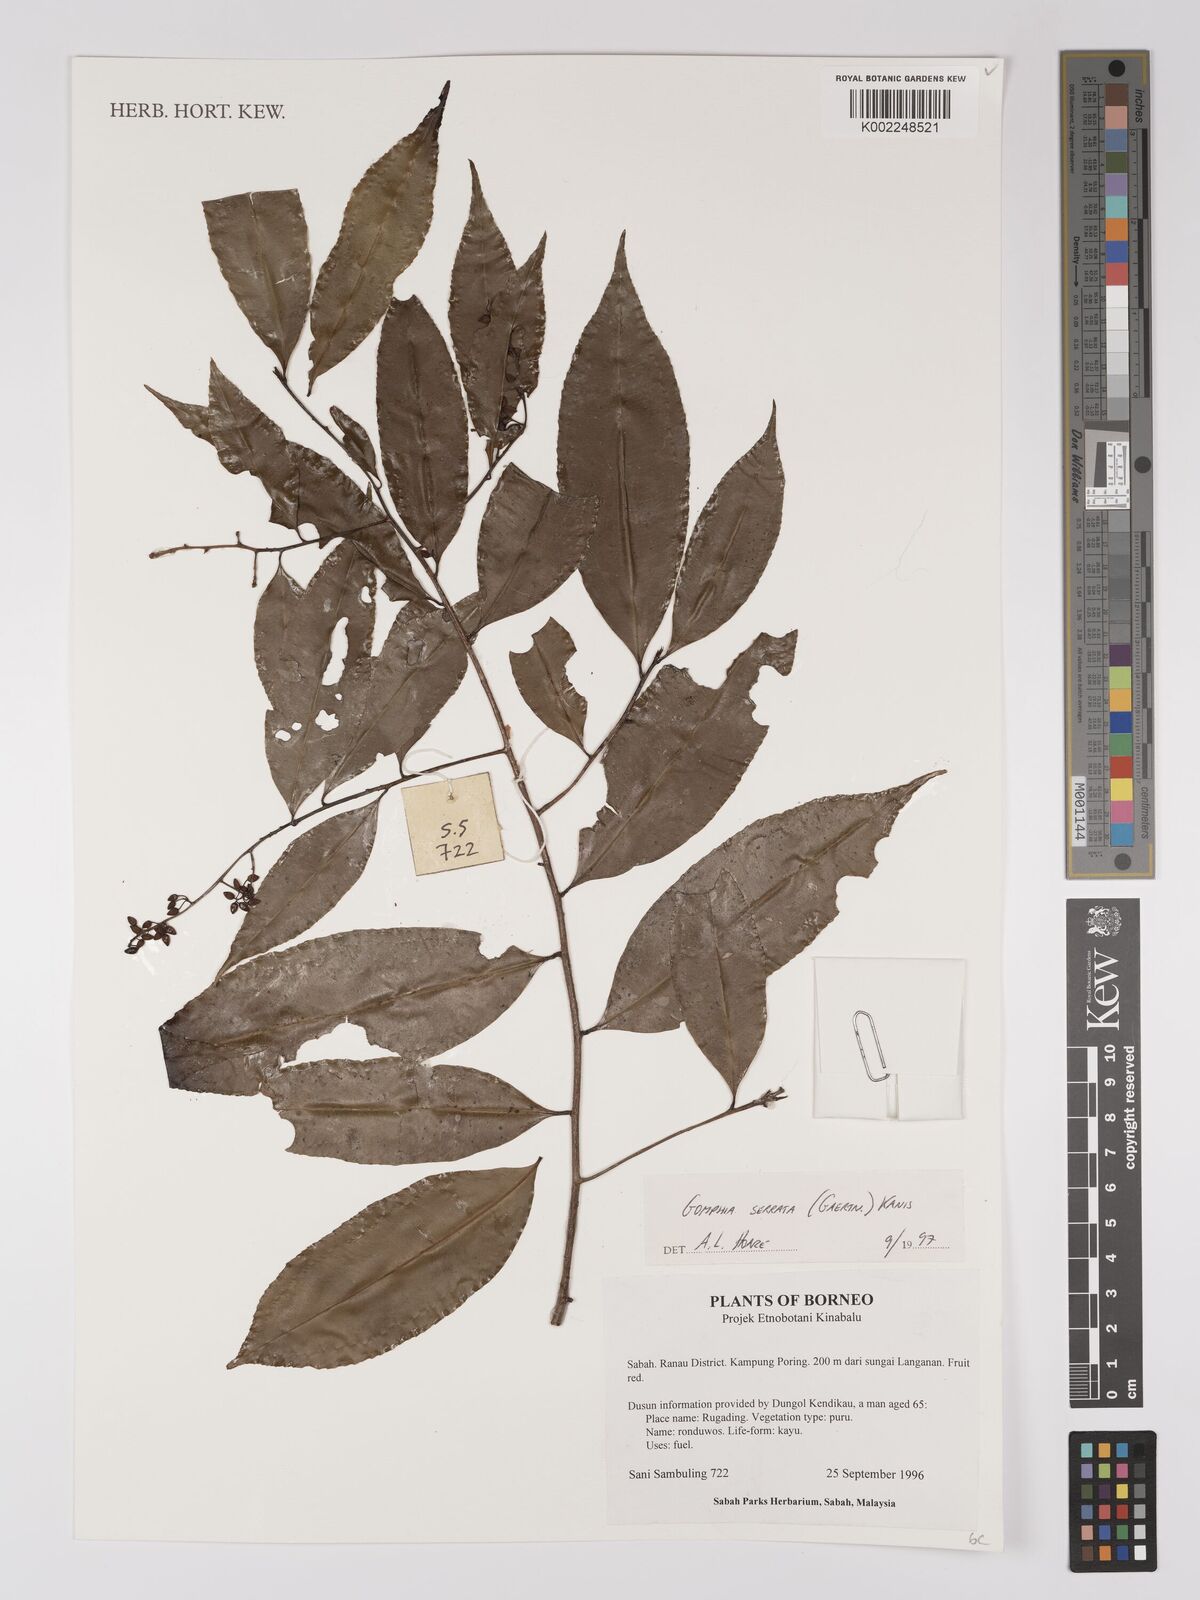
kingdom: Plantae
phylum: Tracheophyta
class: Magnoliopsida
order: Malpighiales
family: Ochnaceae
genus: Gomphia
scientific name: Gomphia serrata
